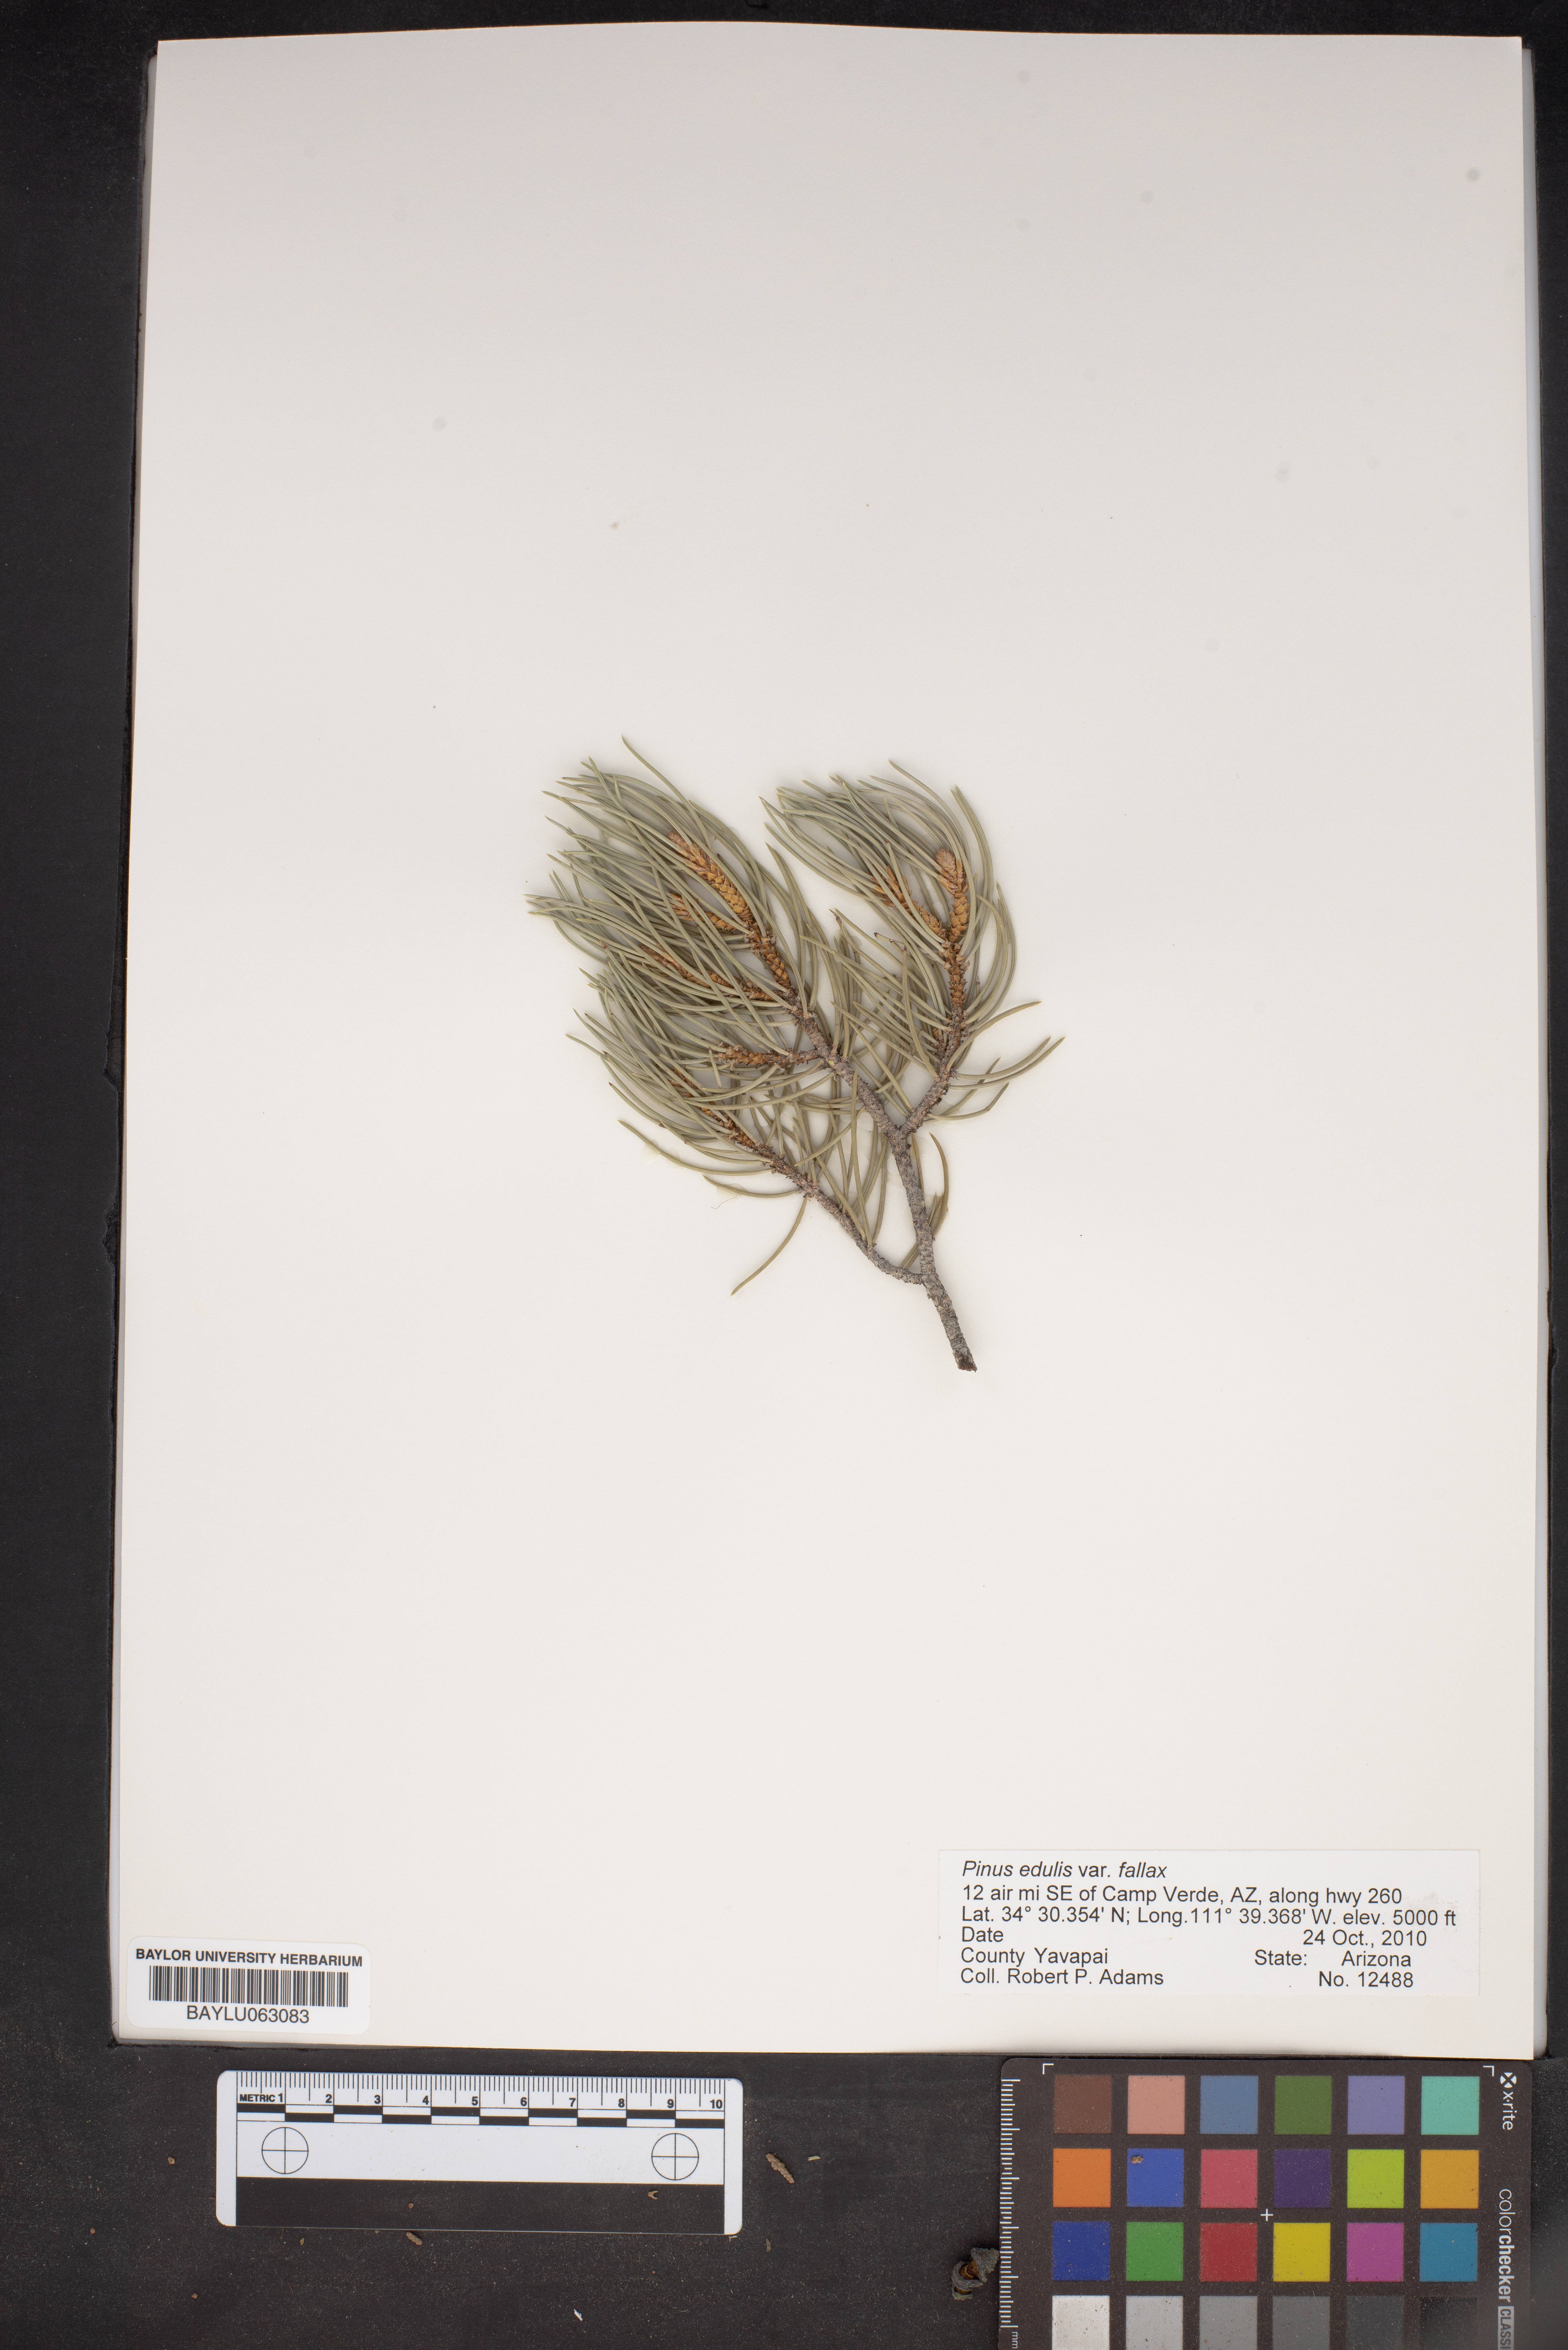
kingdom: Plantae
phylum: Tracheophyta
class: Pinopsida
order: Pinales
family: Pinaceae
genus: Pinus
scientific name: Pinus monophylla
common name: One-leaved nut pine
